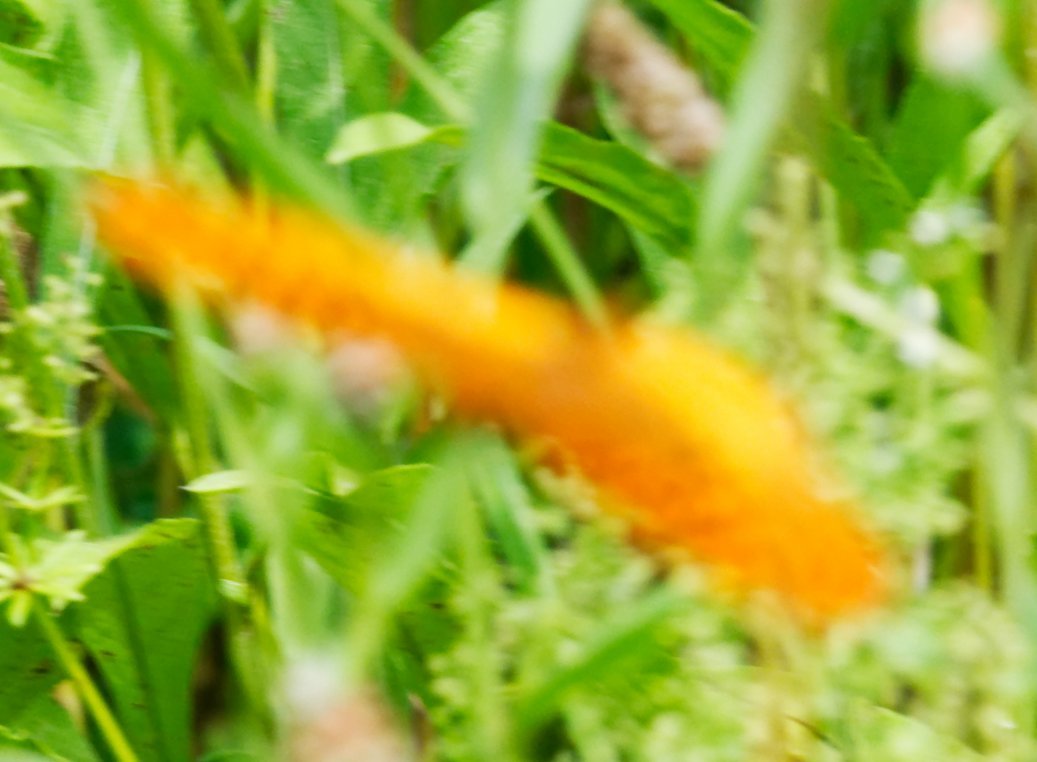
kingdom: Animalia
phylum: Arthropoda
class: Insecta
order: Lepidoptera
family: Nymphalidae
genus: Speyeria
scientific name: Speyeria cybele
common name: Great Spangled Fritillary
